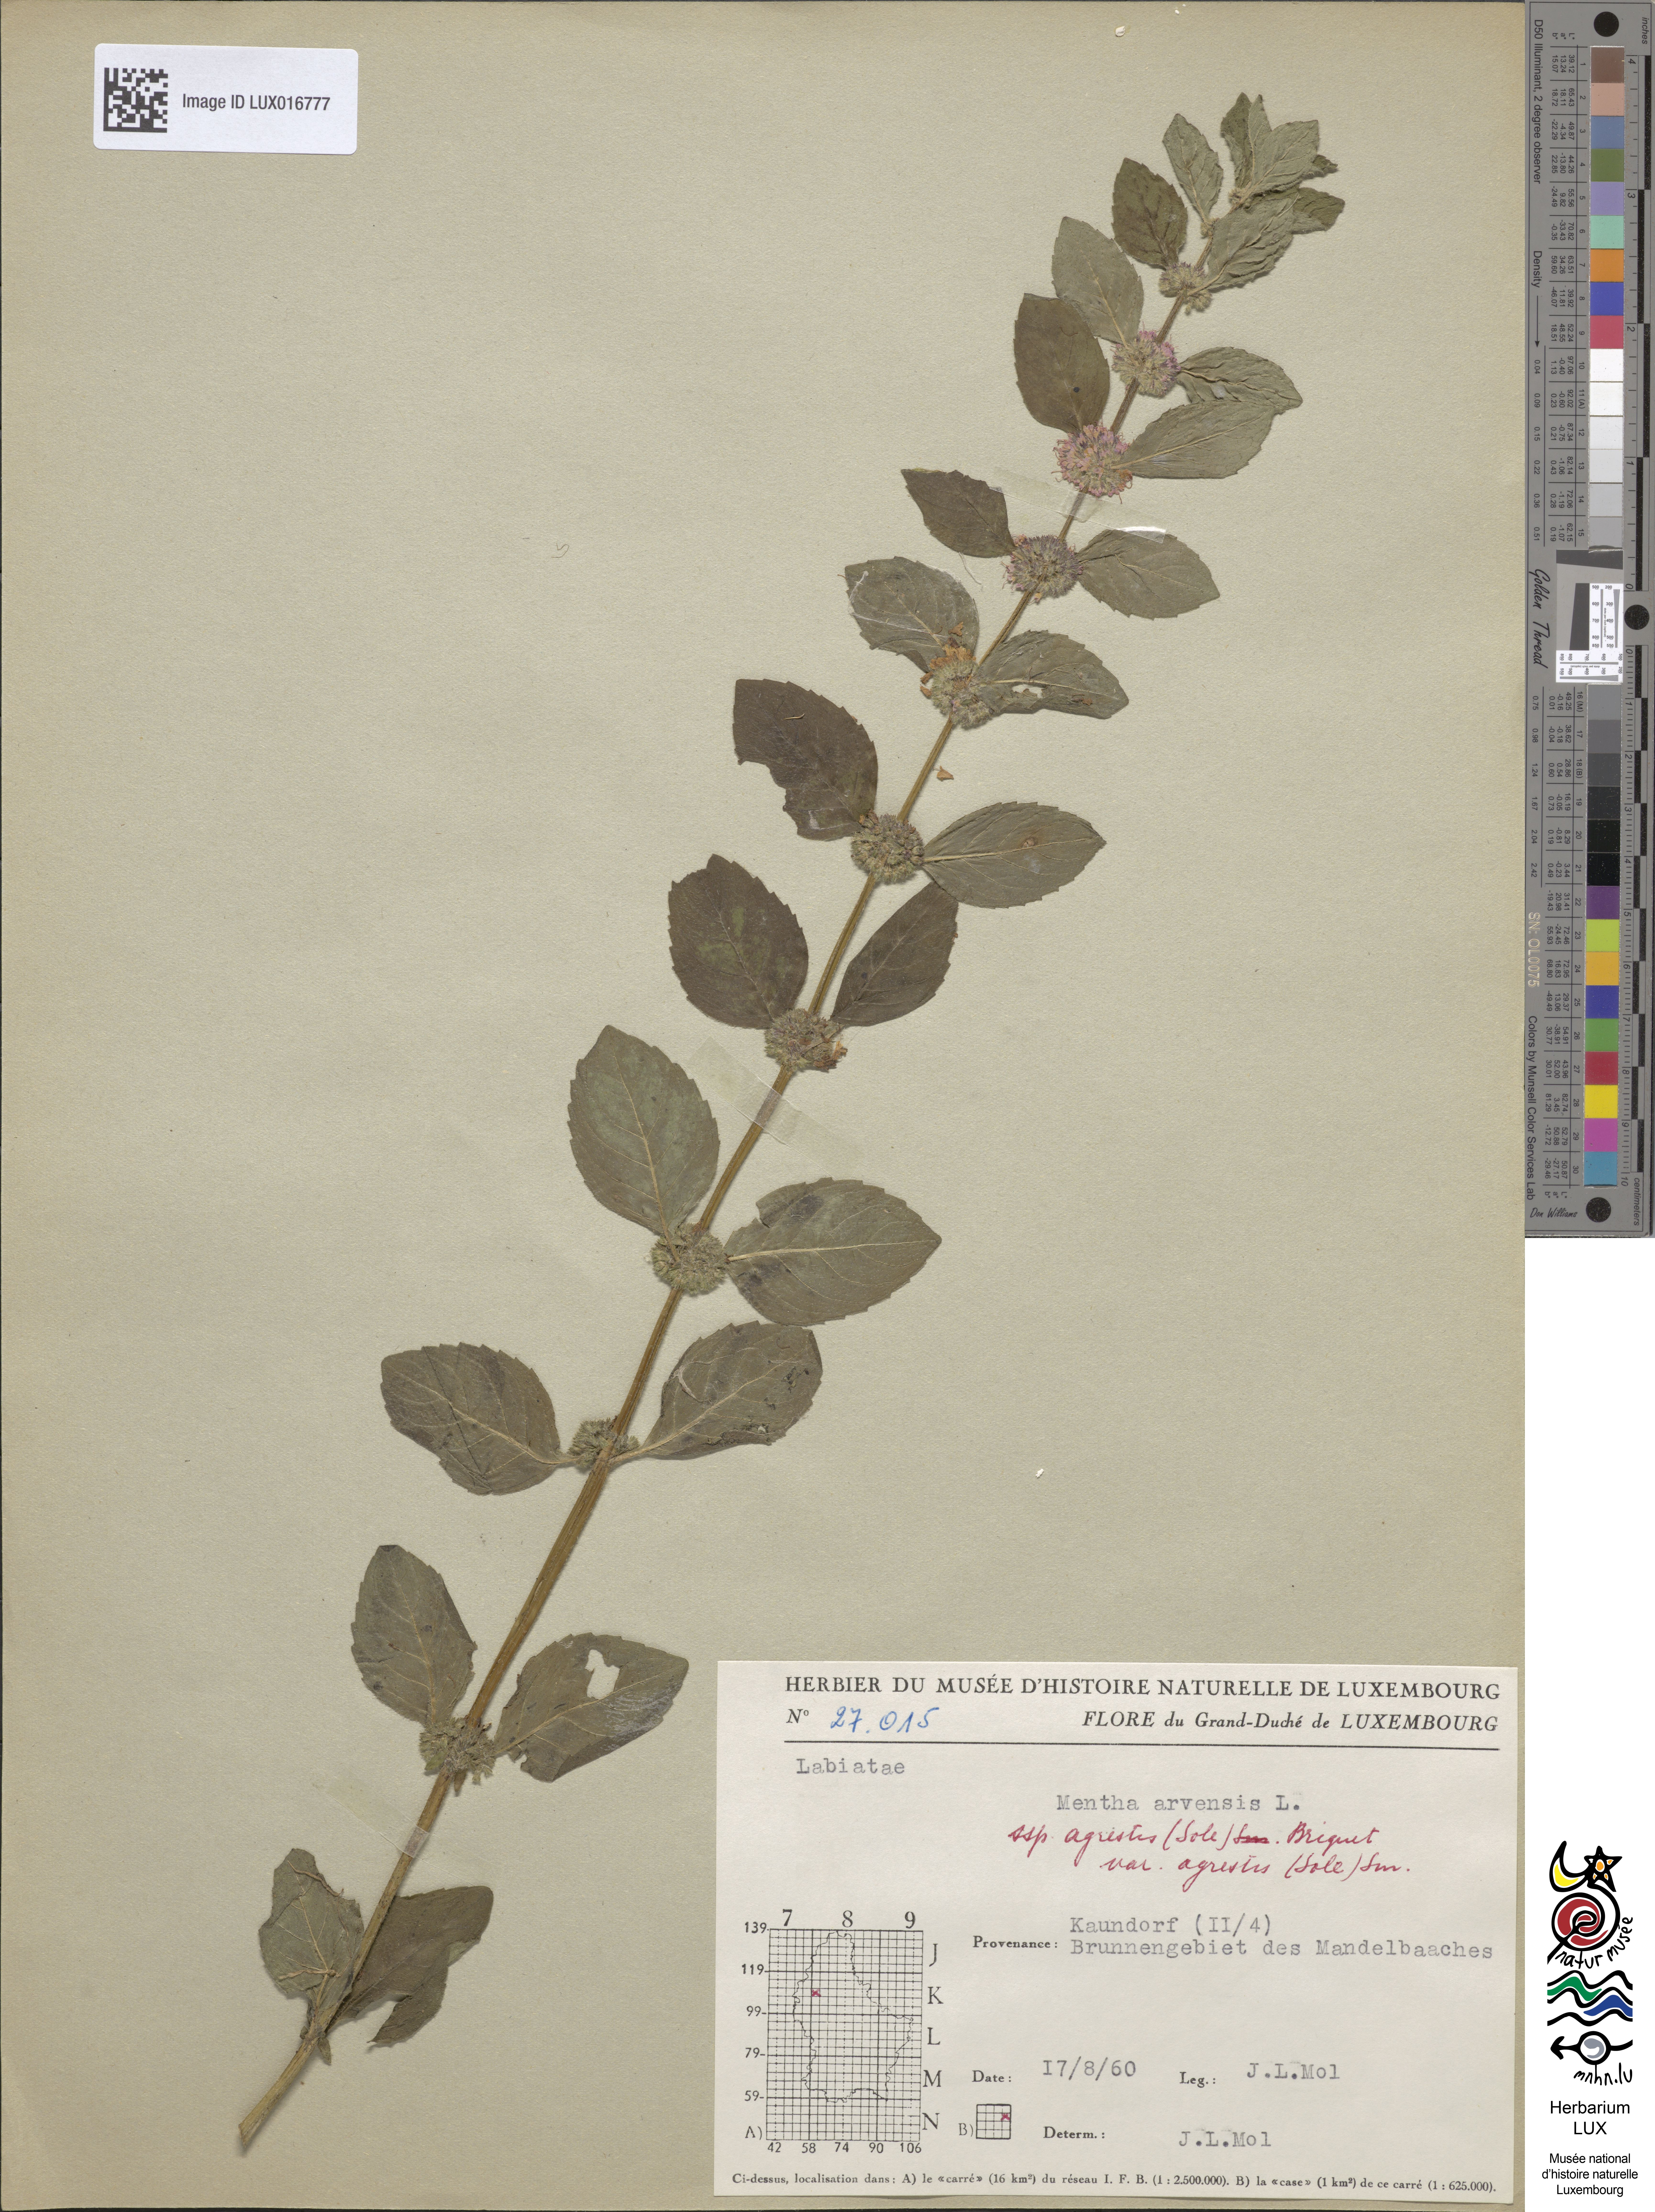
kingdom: Plantae
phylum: Tracheophyta
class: Magnoliopsida
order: Lamiales
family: Lamiaceae
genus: Mentha
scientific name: Mentha arvensis
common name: Corn mint
